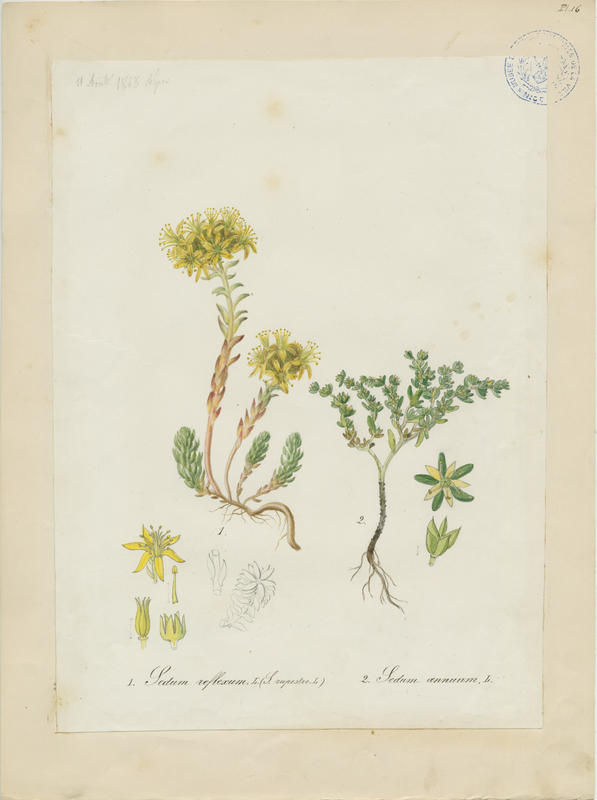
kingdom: Plantae
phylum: Tracheophyta
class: Magnoliopsida
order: Saxifragales
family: Crassulaceae
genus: Sedum
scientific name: Sedum annuum
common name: Annual stonecrop
